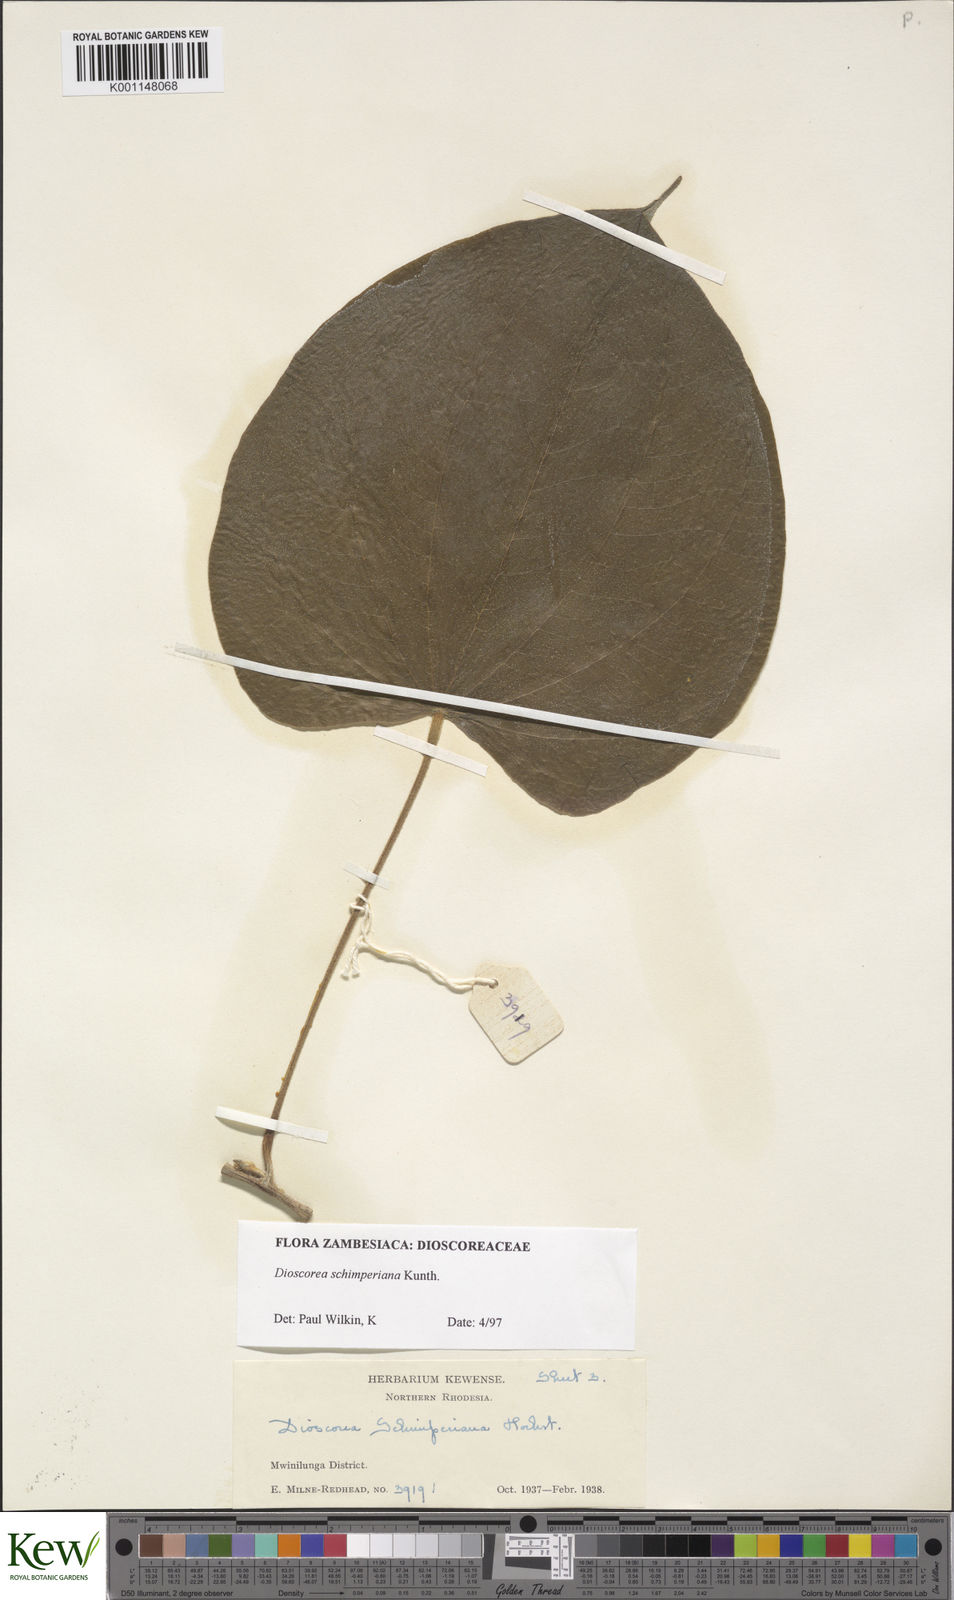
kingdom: Plantae
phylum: Tracheophyta
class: Liliopsida
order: Dioscoreales
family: Dioscoreaceae
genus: Dioscorea
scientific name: Dioscorea schimperiana
